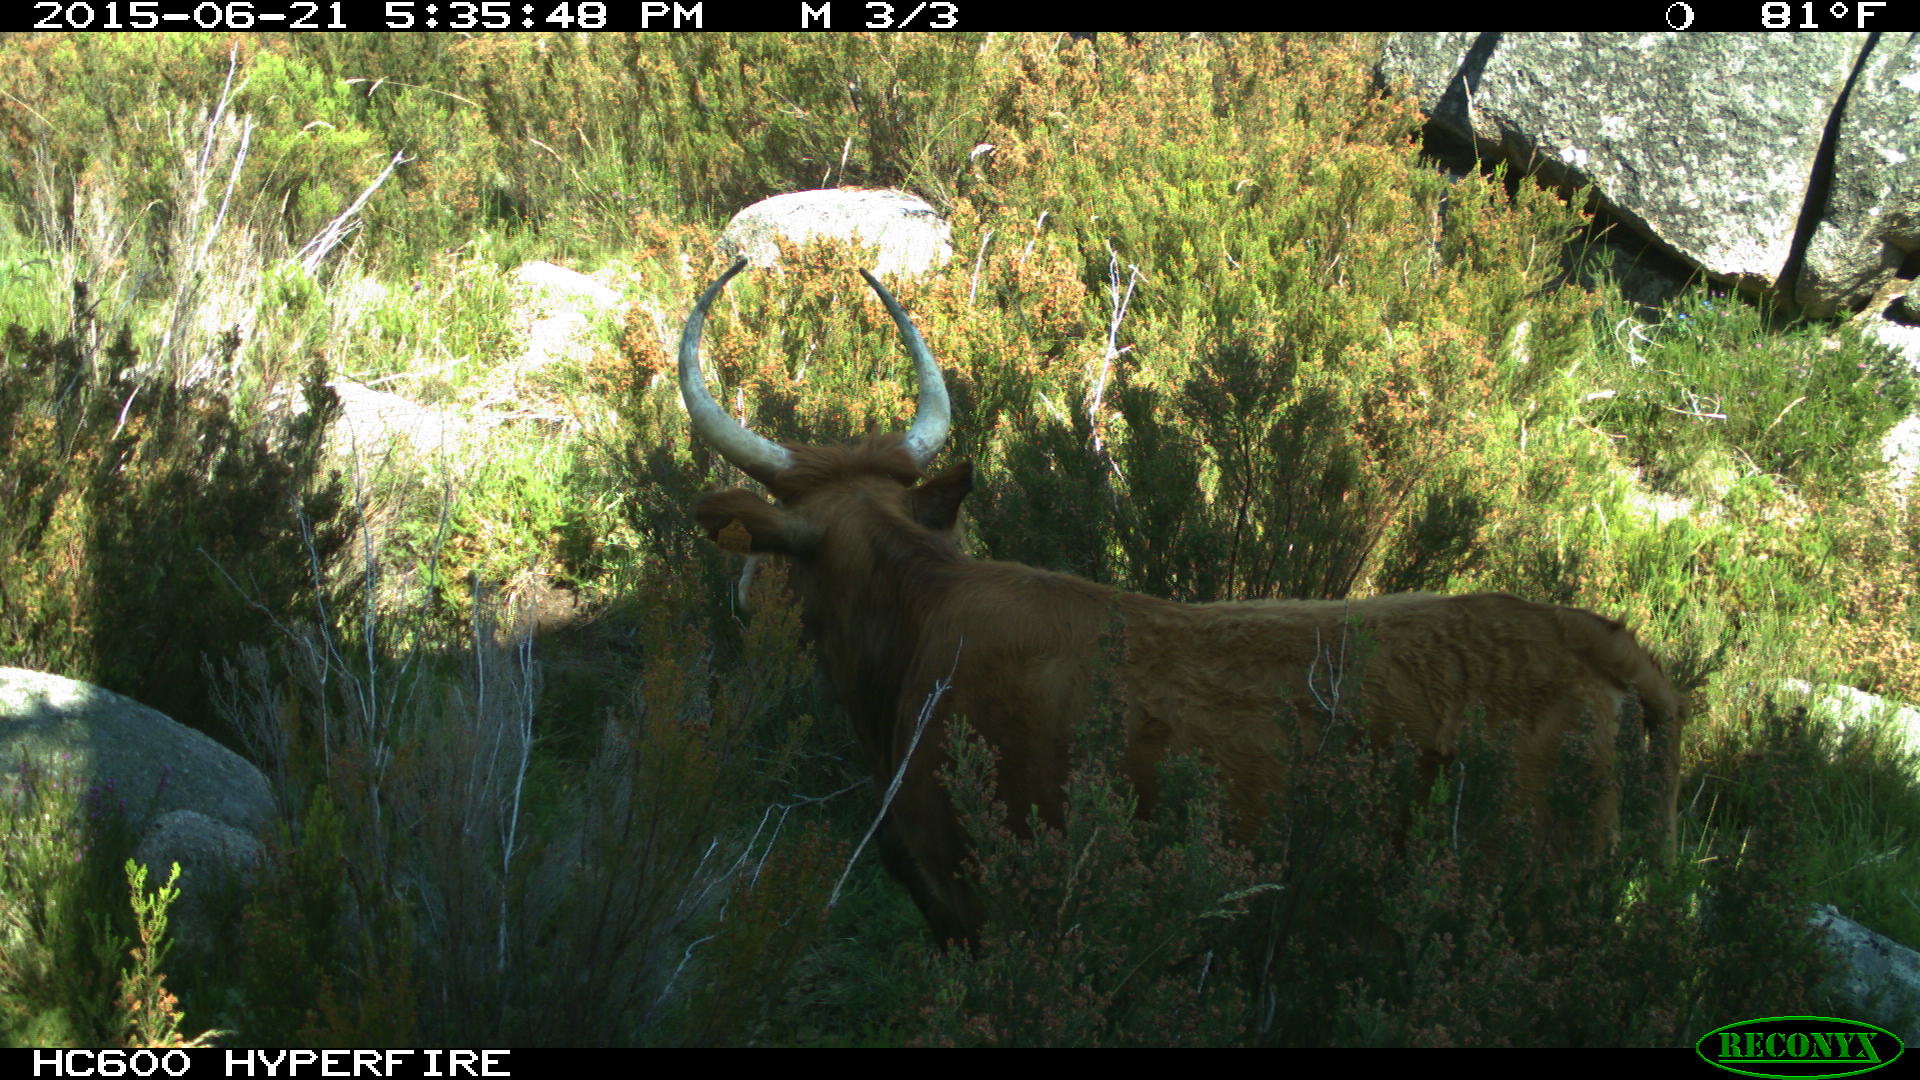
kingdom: Animalia
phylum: Chordata
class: Mammalia
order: Artiodactyla
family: Bovidae
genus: Bos
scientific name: Bos taurus
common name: Domesticated cattle
